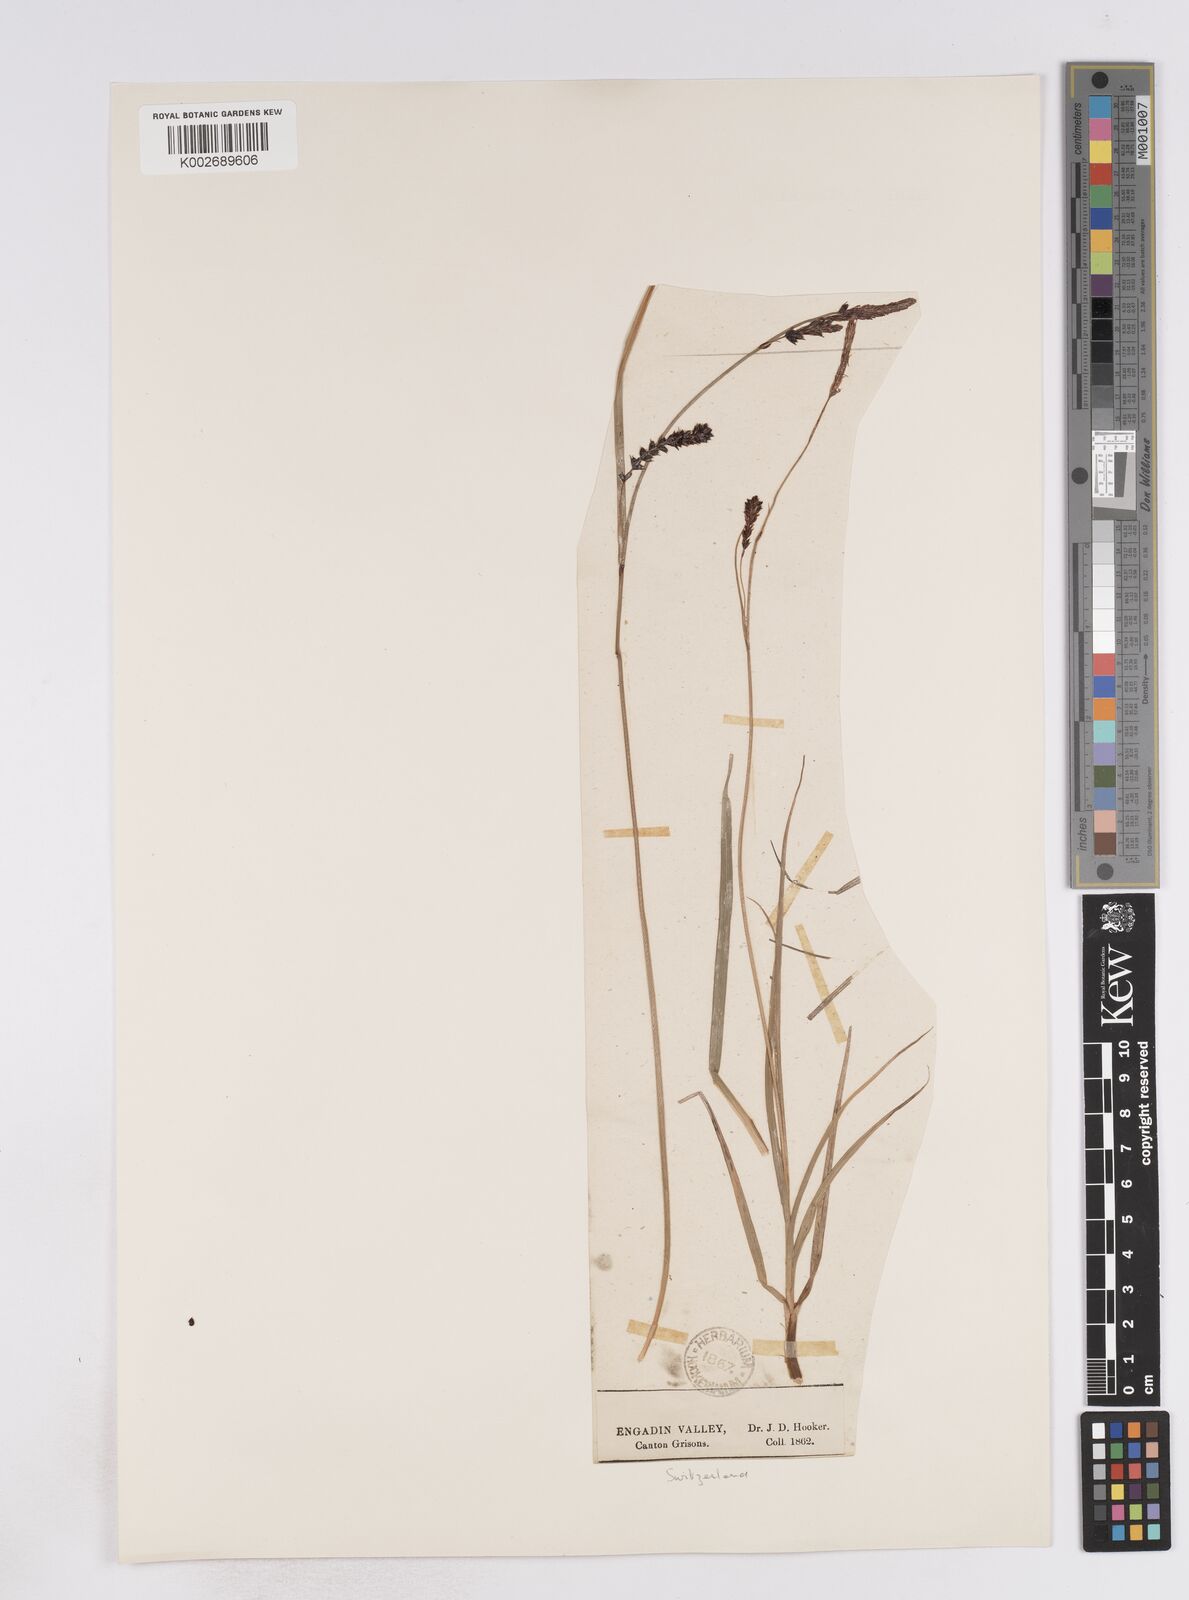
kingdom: Plantae
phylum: Tracheophyta
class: Liliopsida
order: Poales
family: Cyperaceae
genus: Carex
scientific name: Carex flacca
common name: Glaucous sedge
